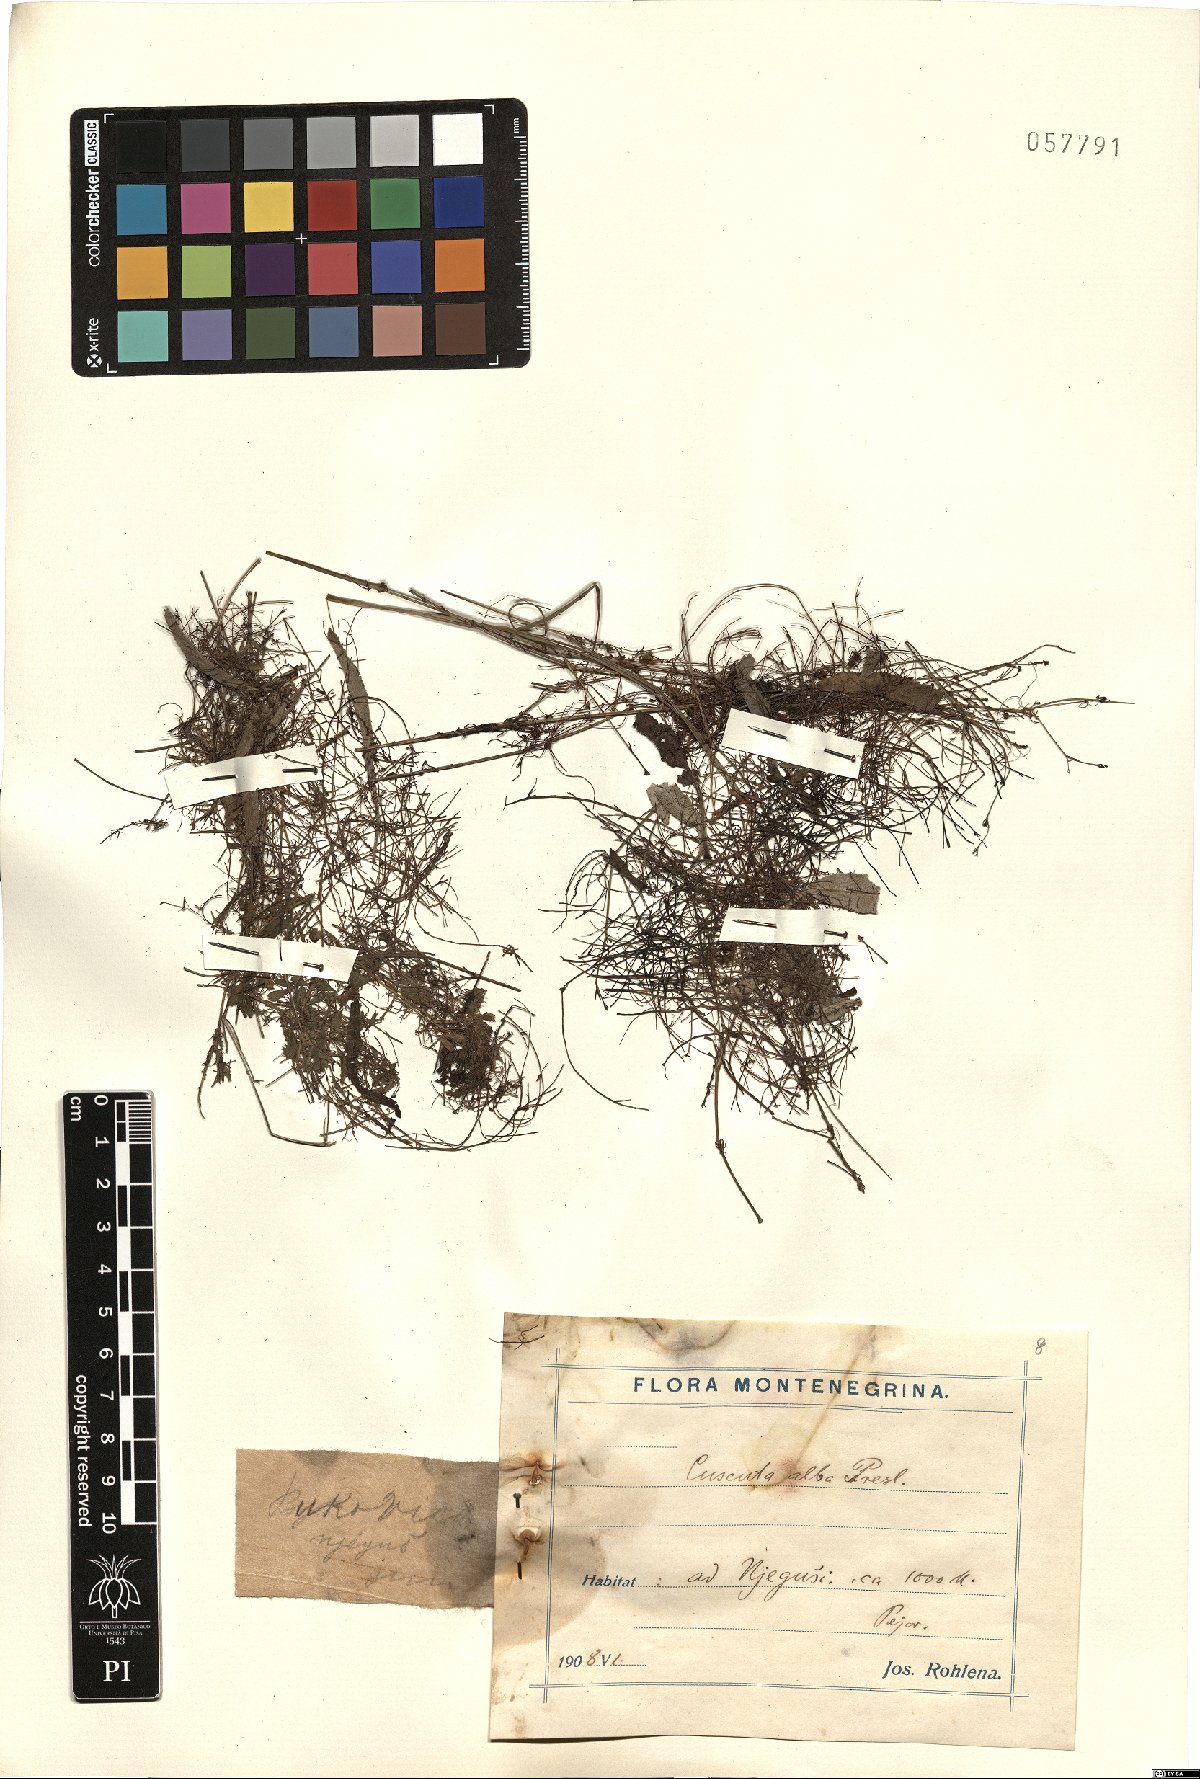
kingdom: Plantae
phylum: Tracheophyta
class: Magnoliopsida
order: Solanales
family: Convolvulaceae
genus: Cuscuta
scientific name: Cuscuta epithymum
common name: Clover dodder
